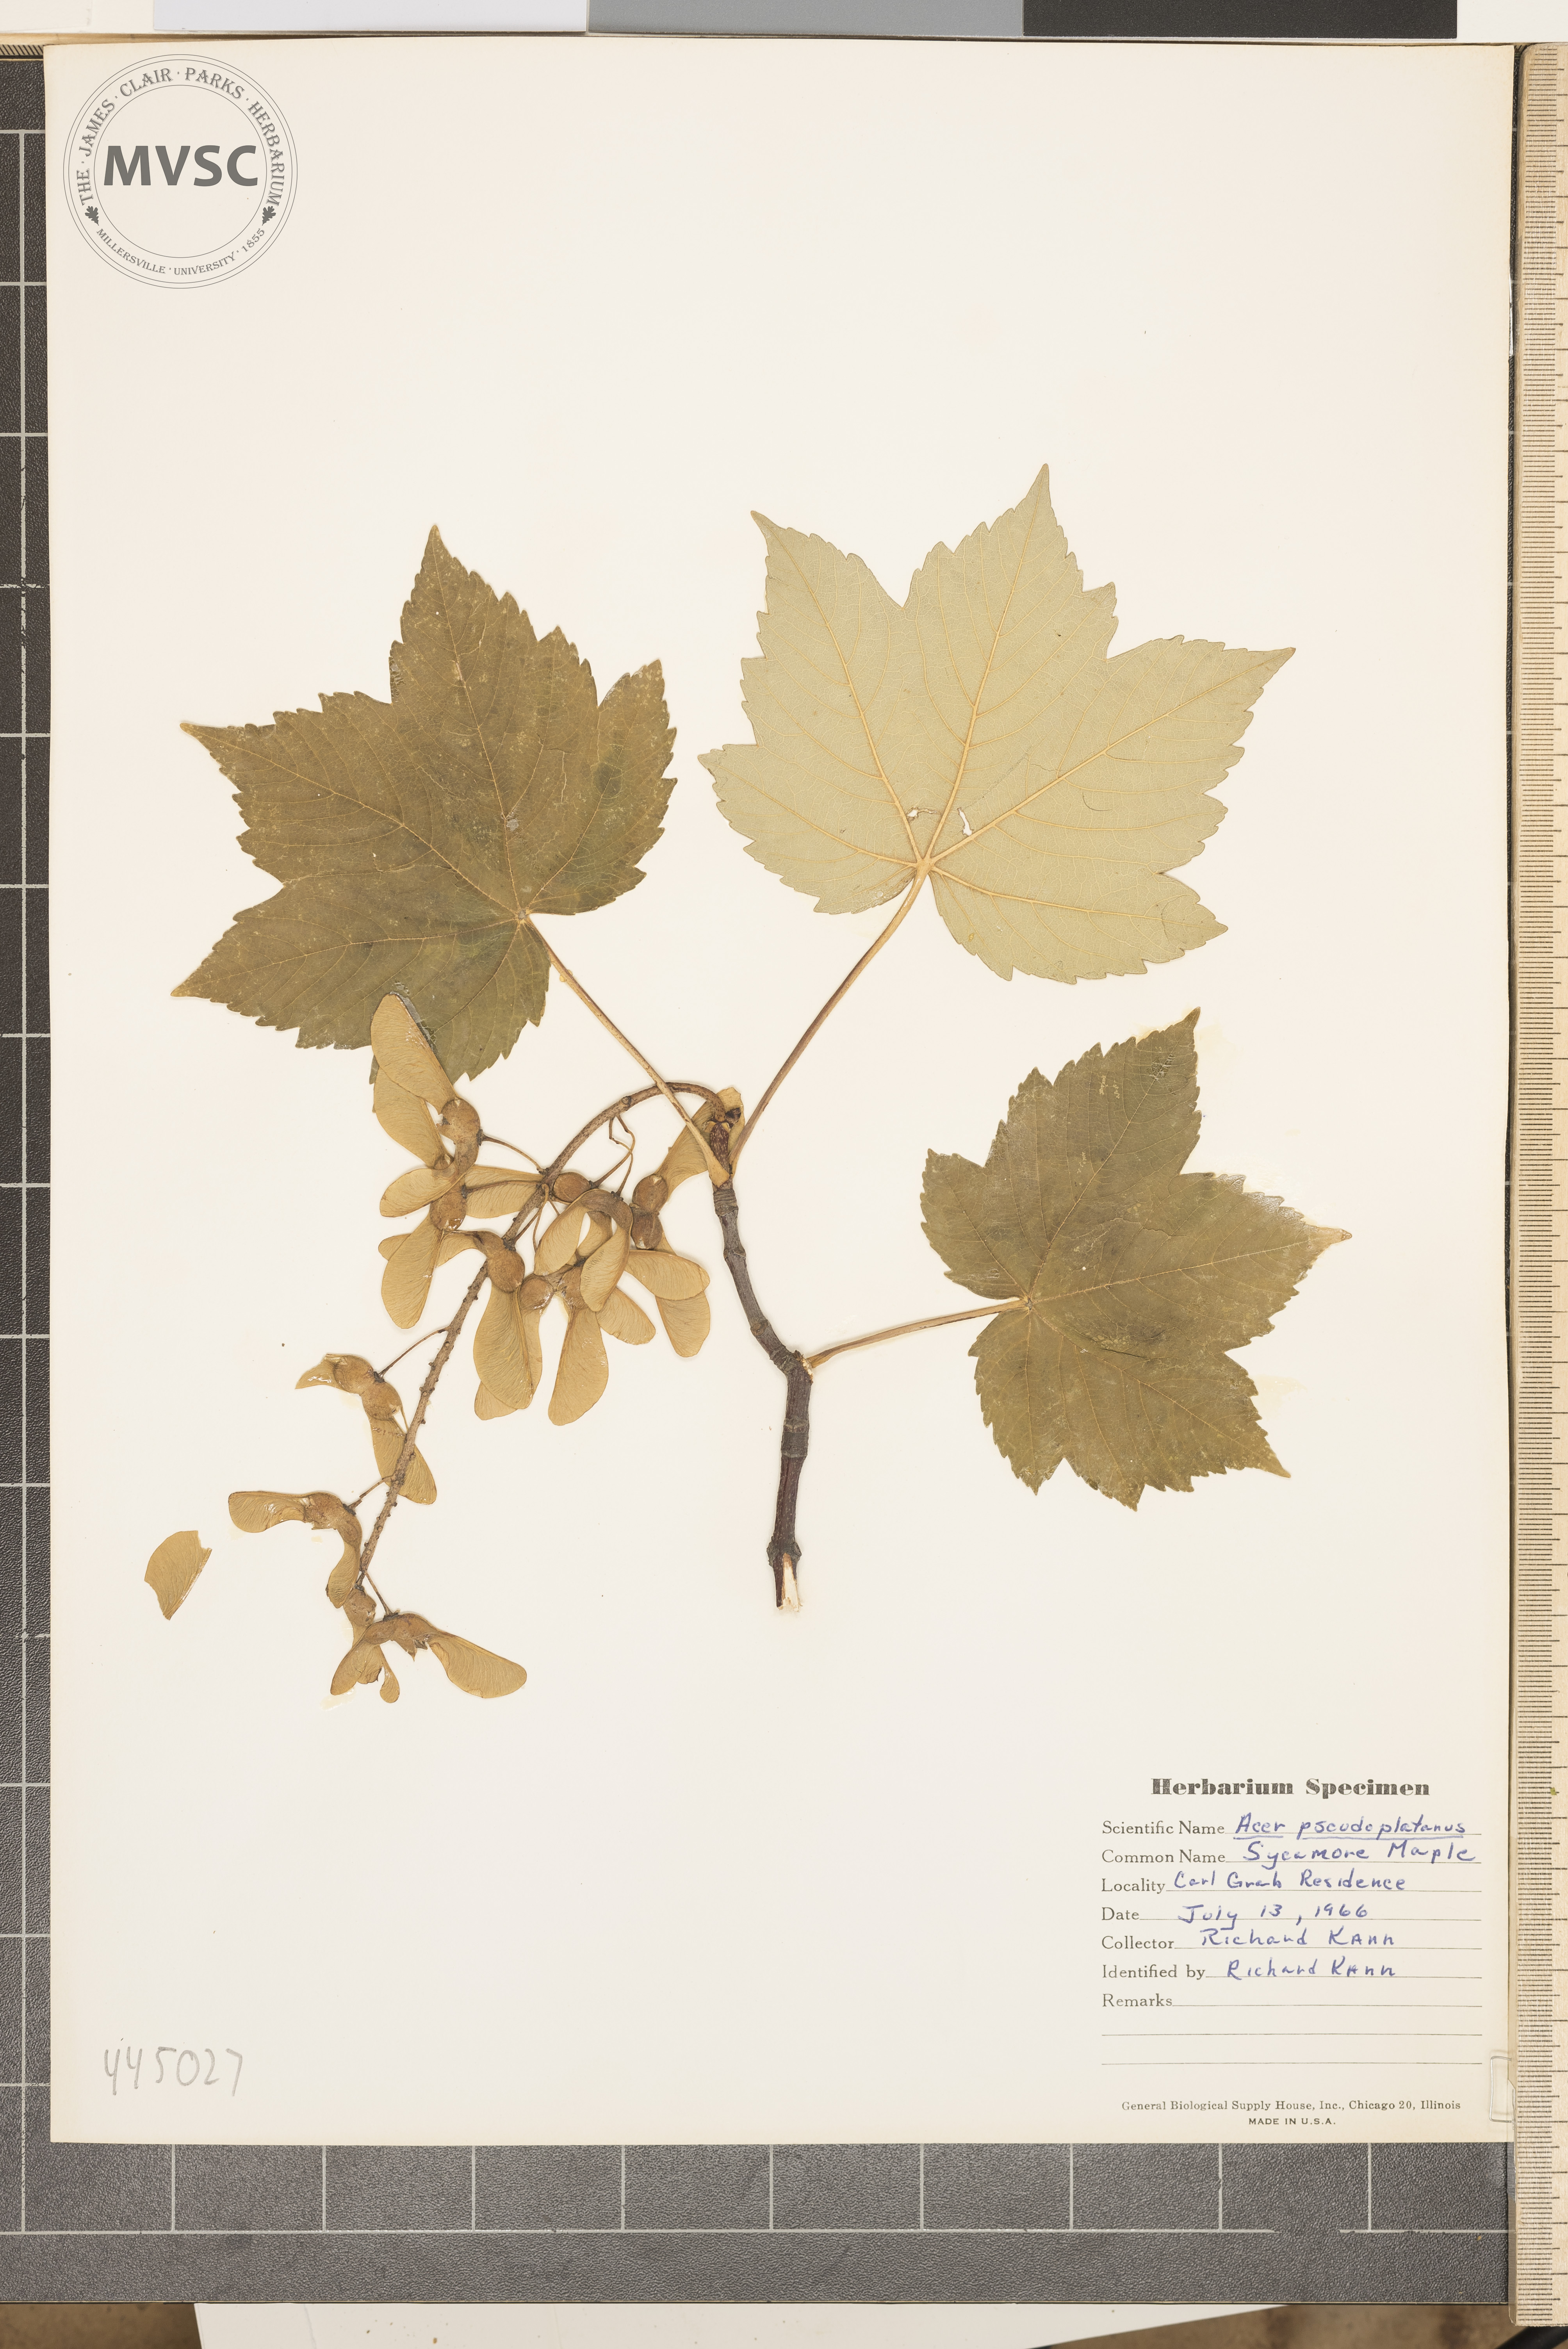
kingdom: Plantae
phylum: Tracheophyta
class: Magnoliopsida
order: Sapindales
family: Sapindaceae
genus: Acer
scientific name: Acer pseudoplatanus
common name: Sycamore maple
